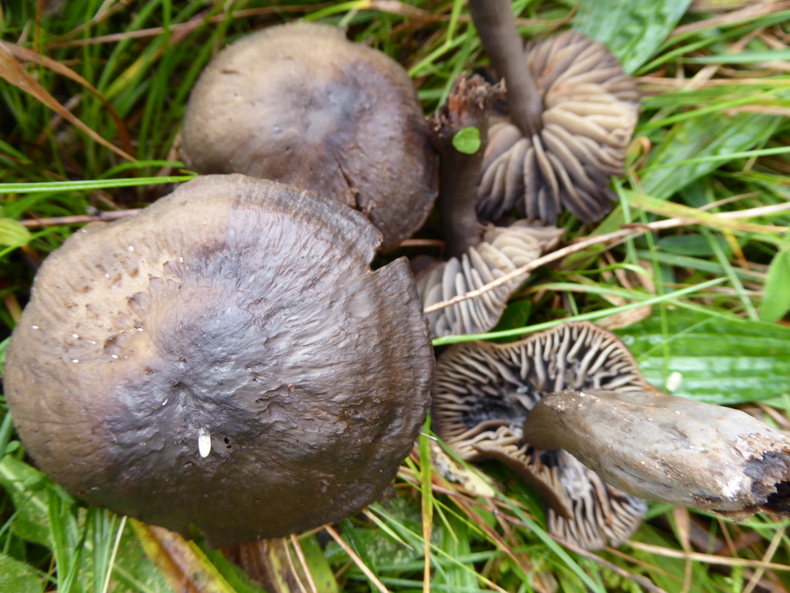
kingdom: Fungi
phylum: Basidiomycota
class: Agaricomycetes
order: Agaricales
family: Hygrophoraceae
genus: Neohygrocybe
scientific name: Neohygrocybe ovina
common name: rødmende vokshat
